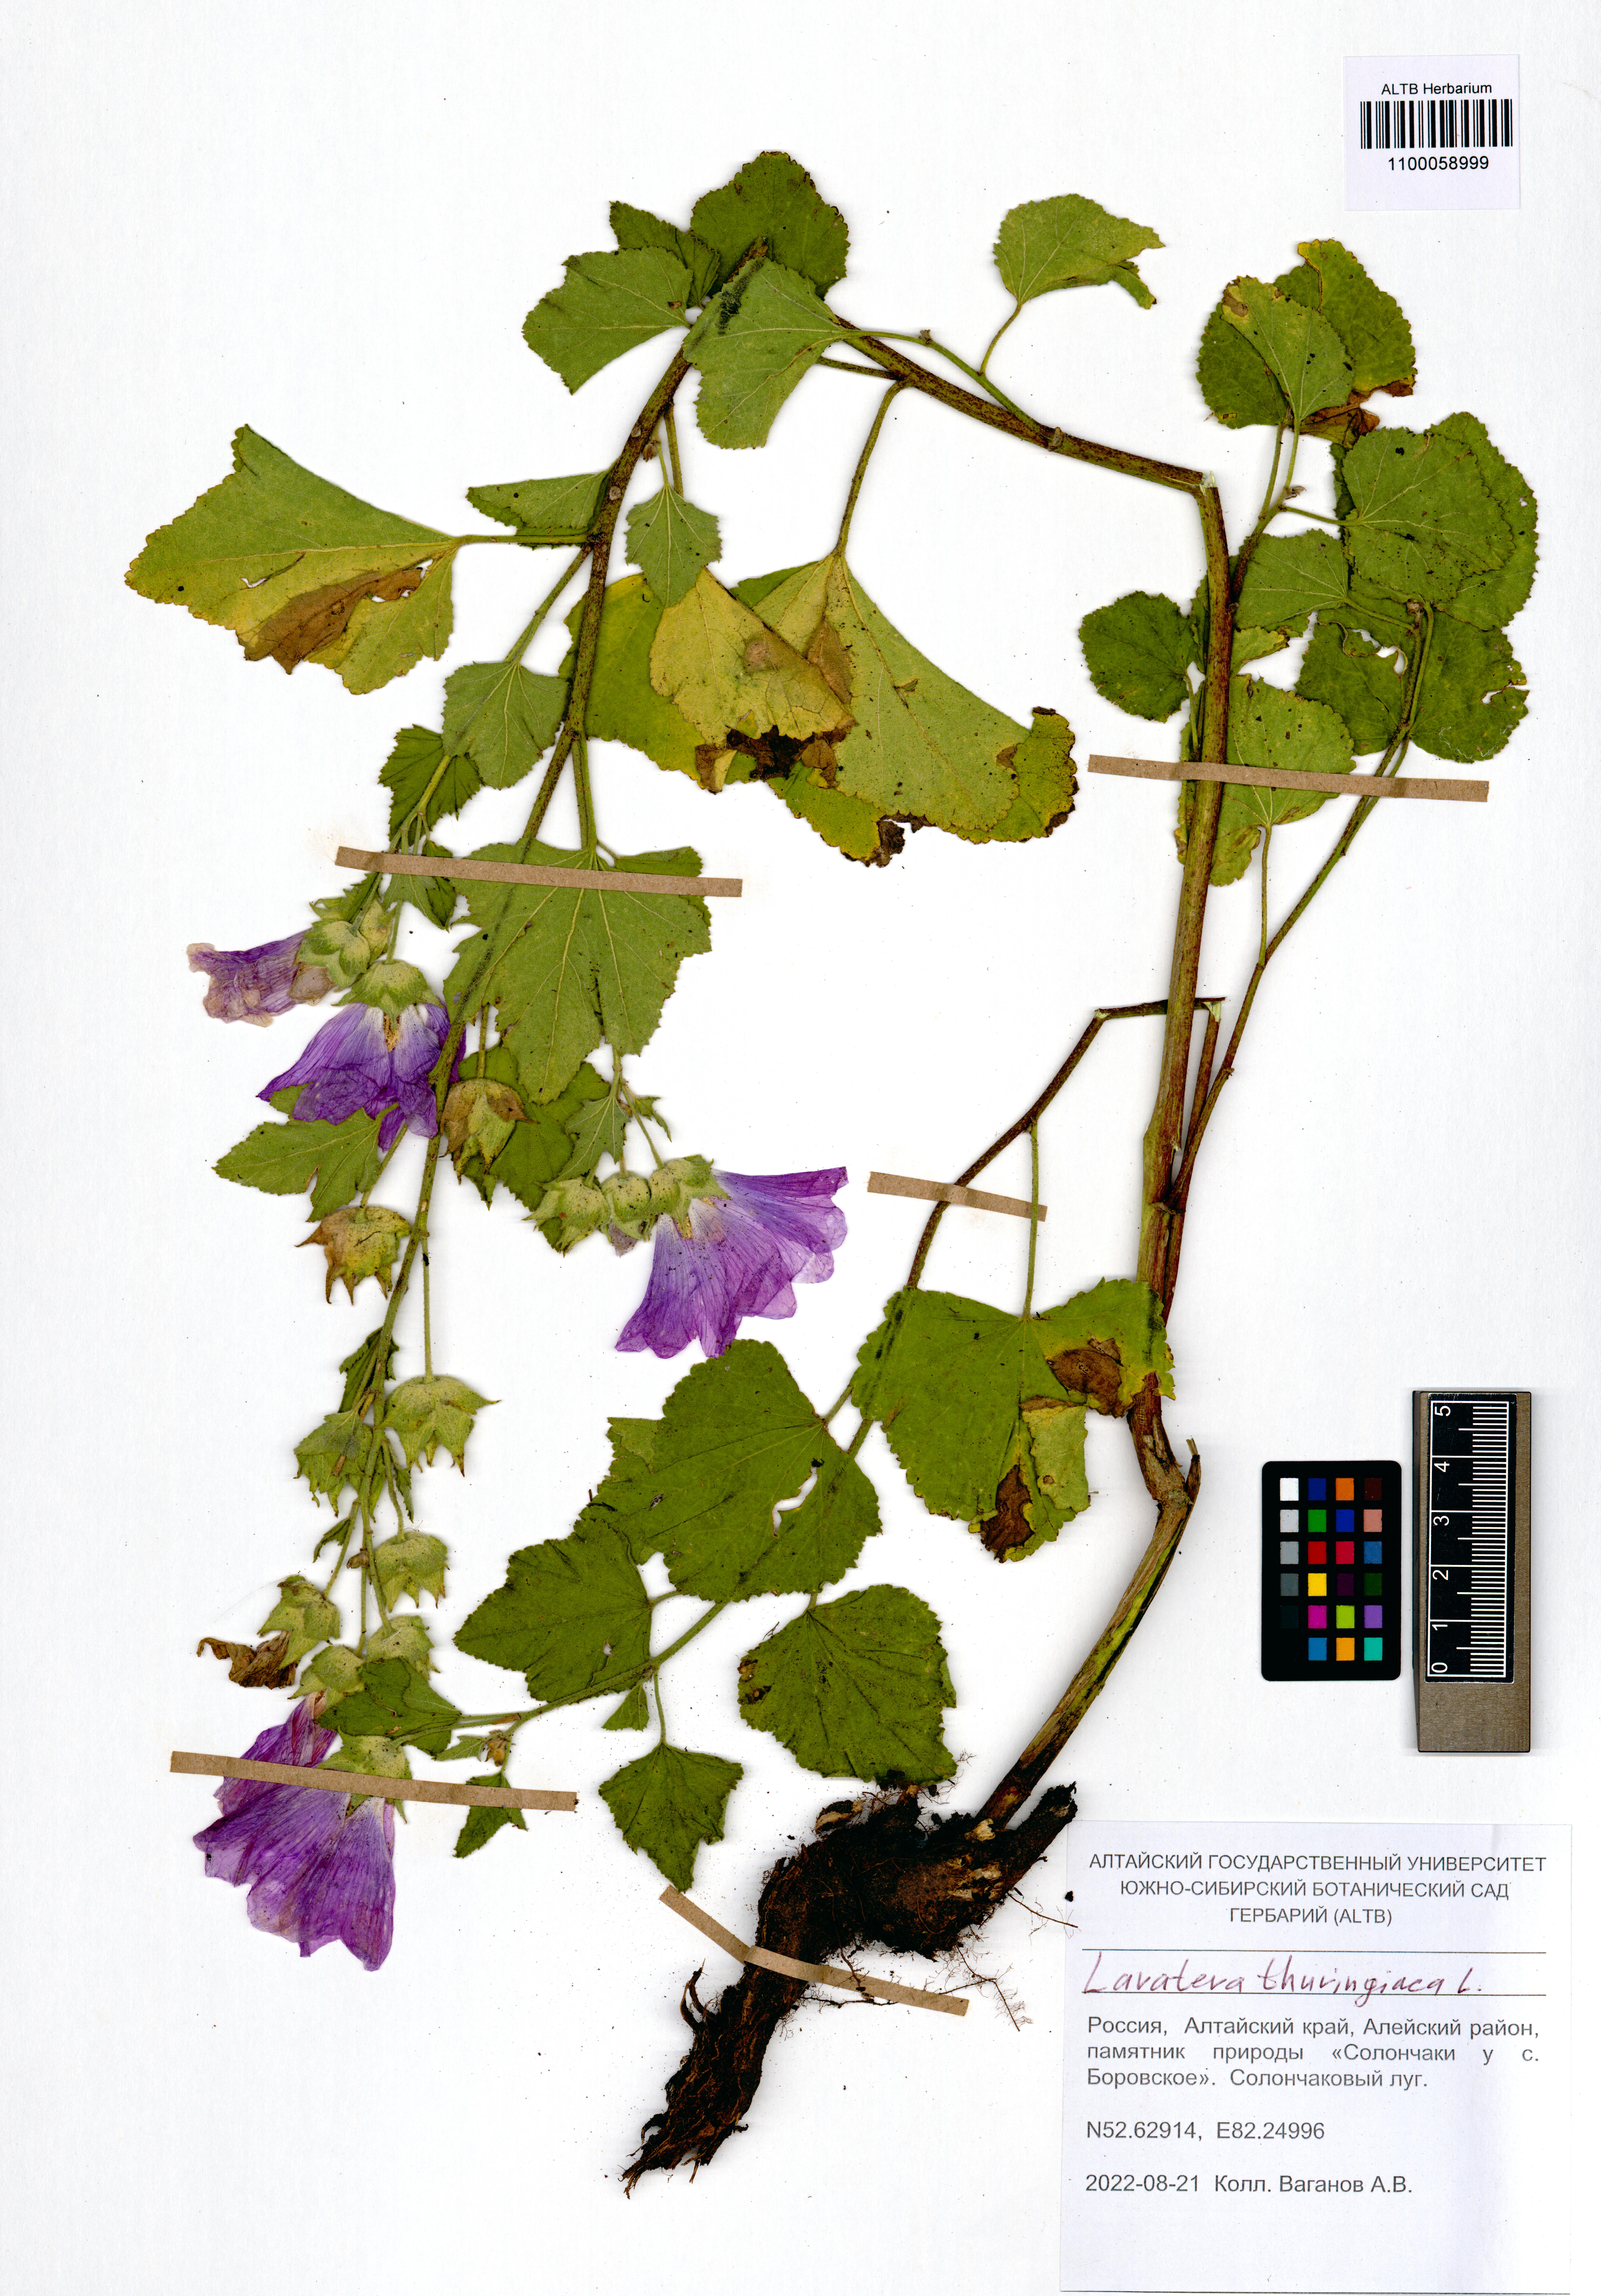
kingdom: Plantae
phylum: Tracheophyta
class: Magnoliopsida
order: Malvales
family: Malvaceae
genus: Malva
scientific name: Malva thuringiaca
